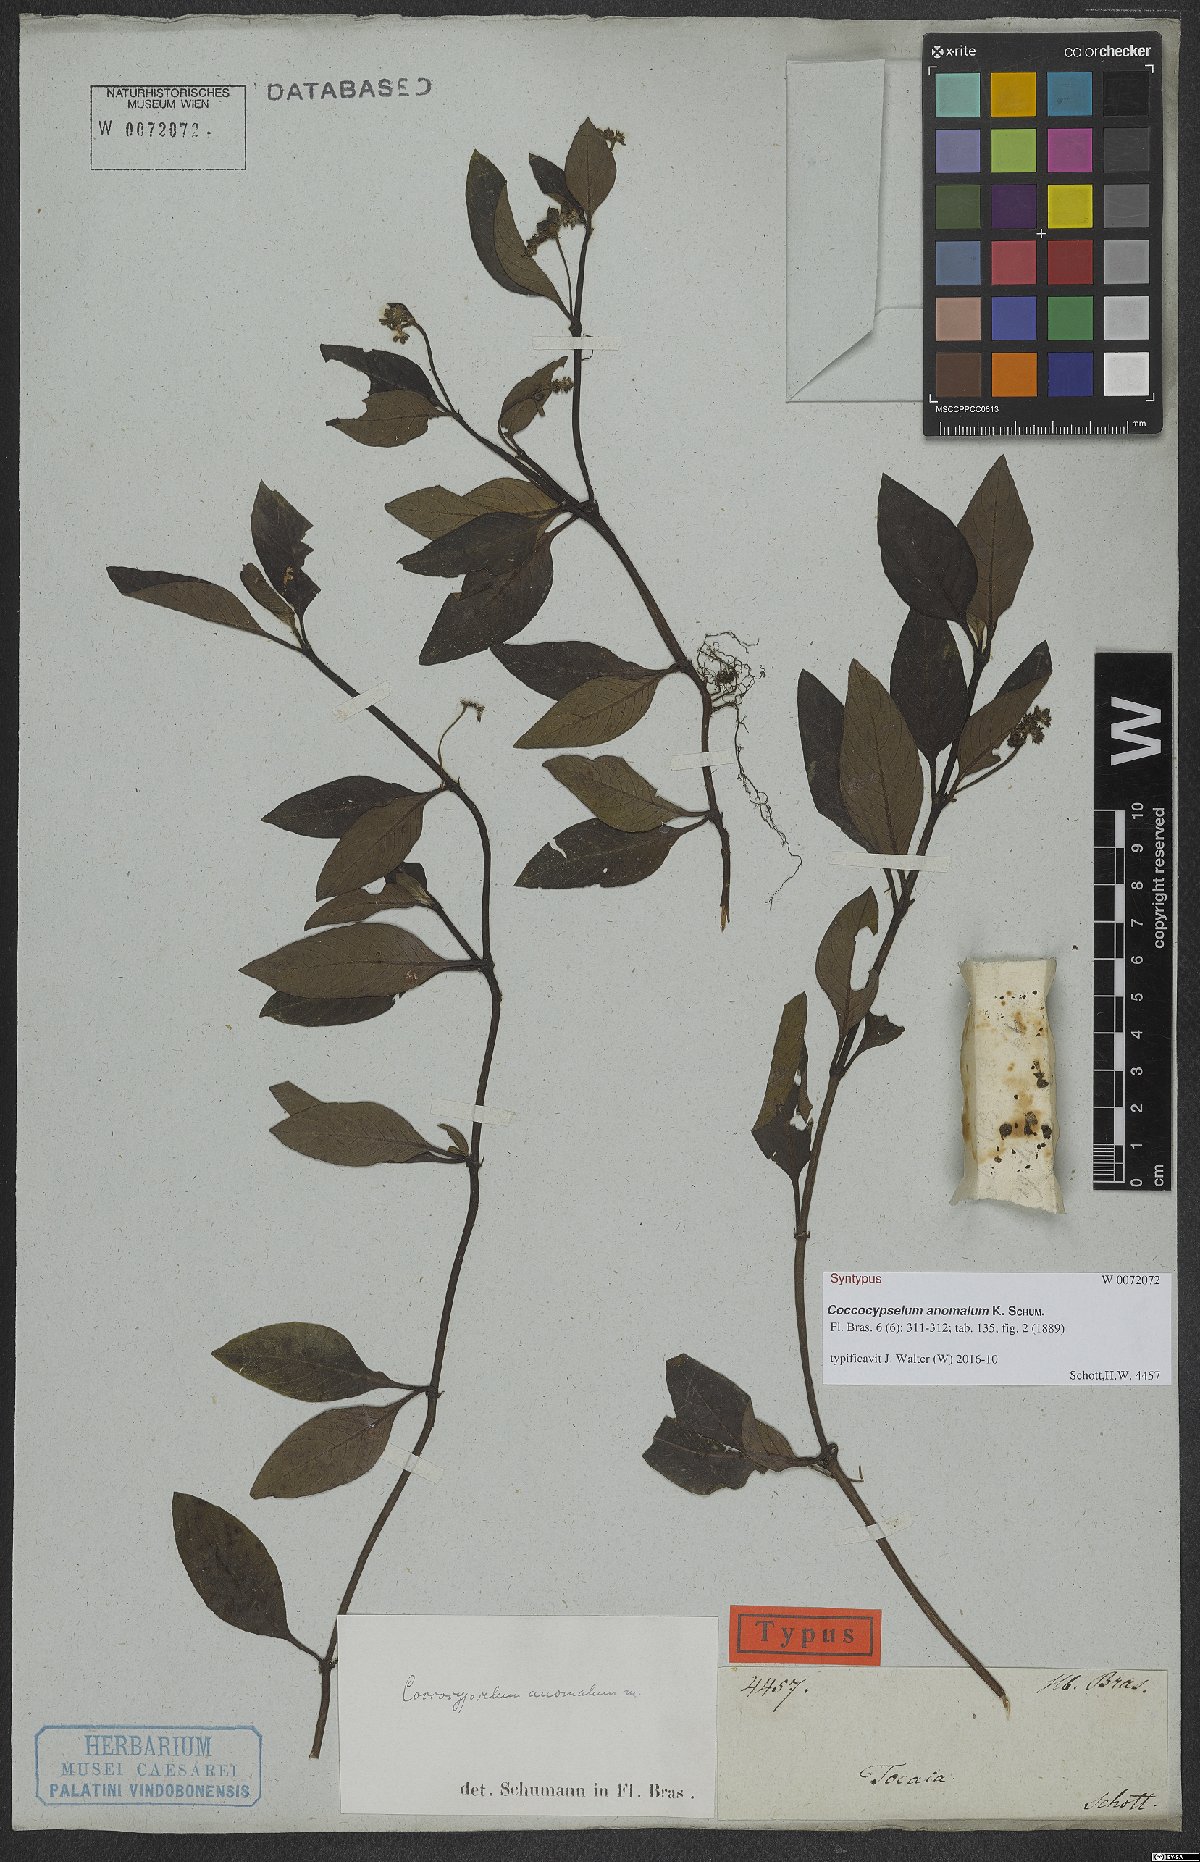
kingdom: Plantae
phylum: Tracheophyta
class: Magnoliopsida
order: Gentianales
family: Rubiaceae
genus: Coccocypselum
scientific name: Coccocypselum anomalum
